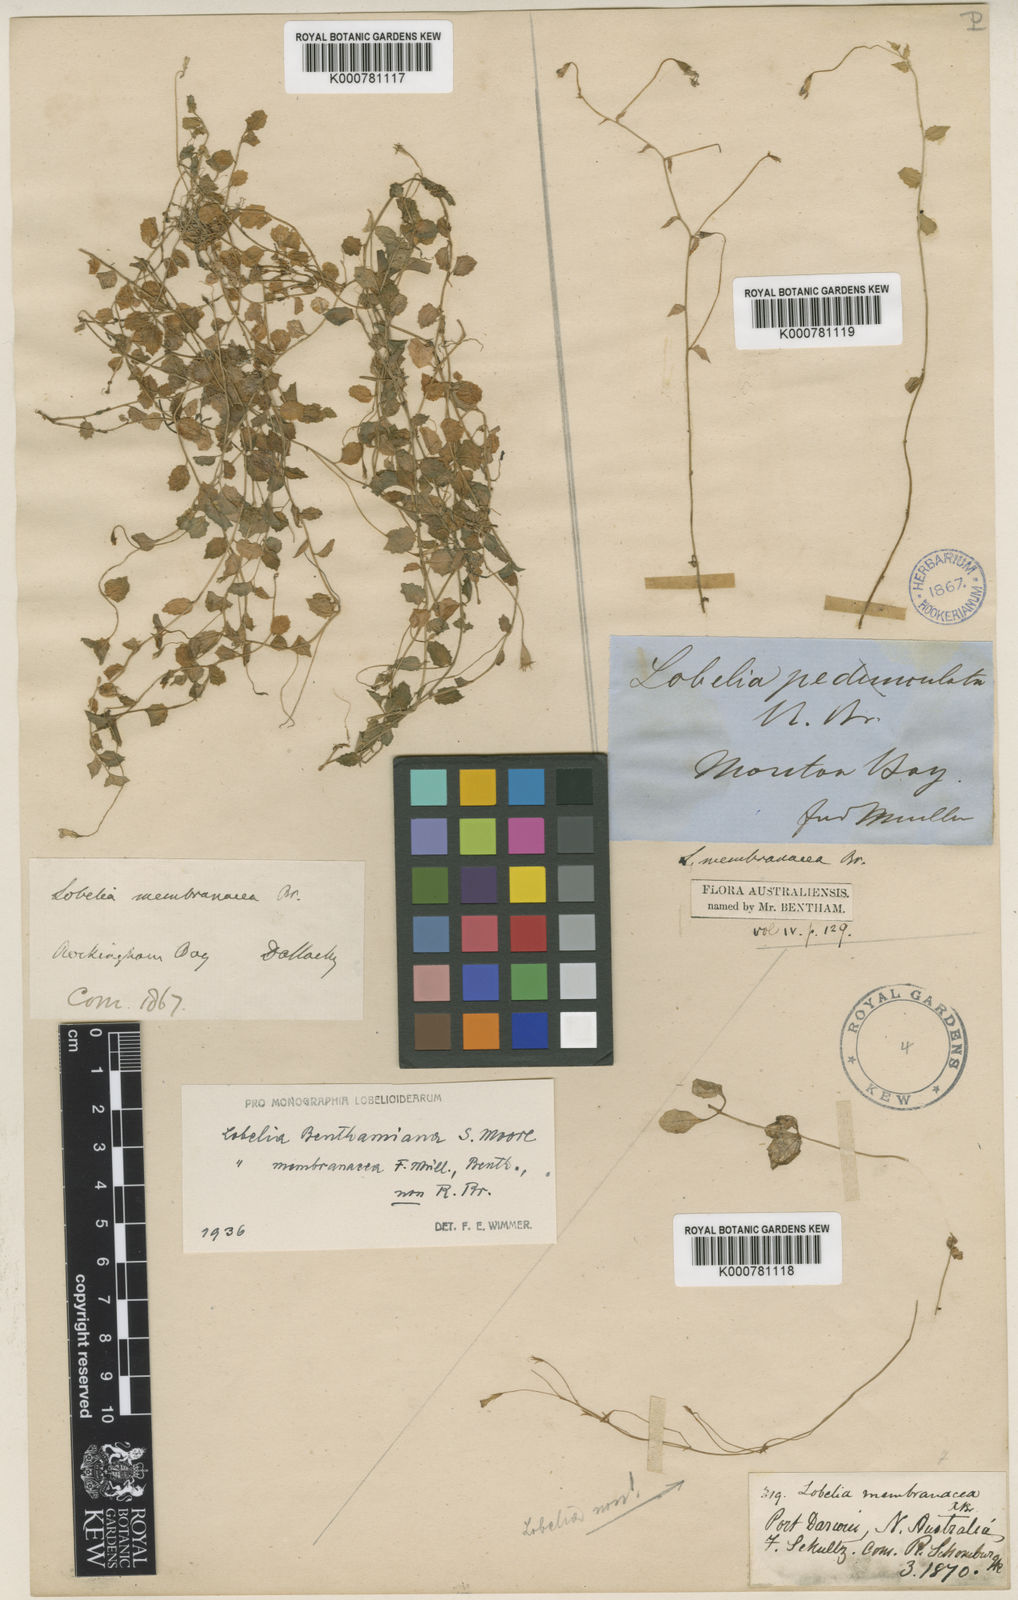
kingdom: Plantae
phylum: Tracheophyta
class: Magnoliopsida
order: Asterales
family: Campanulaceae
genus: Lobelia
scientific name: Lobelia quadrangularis
